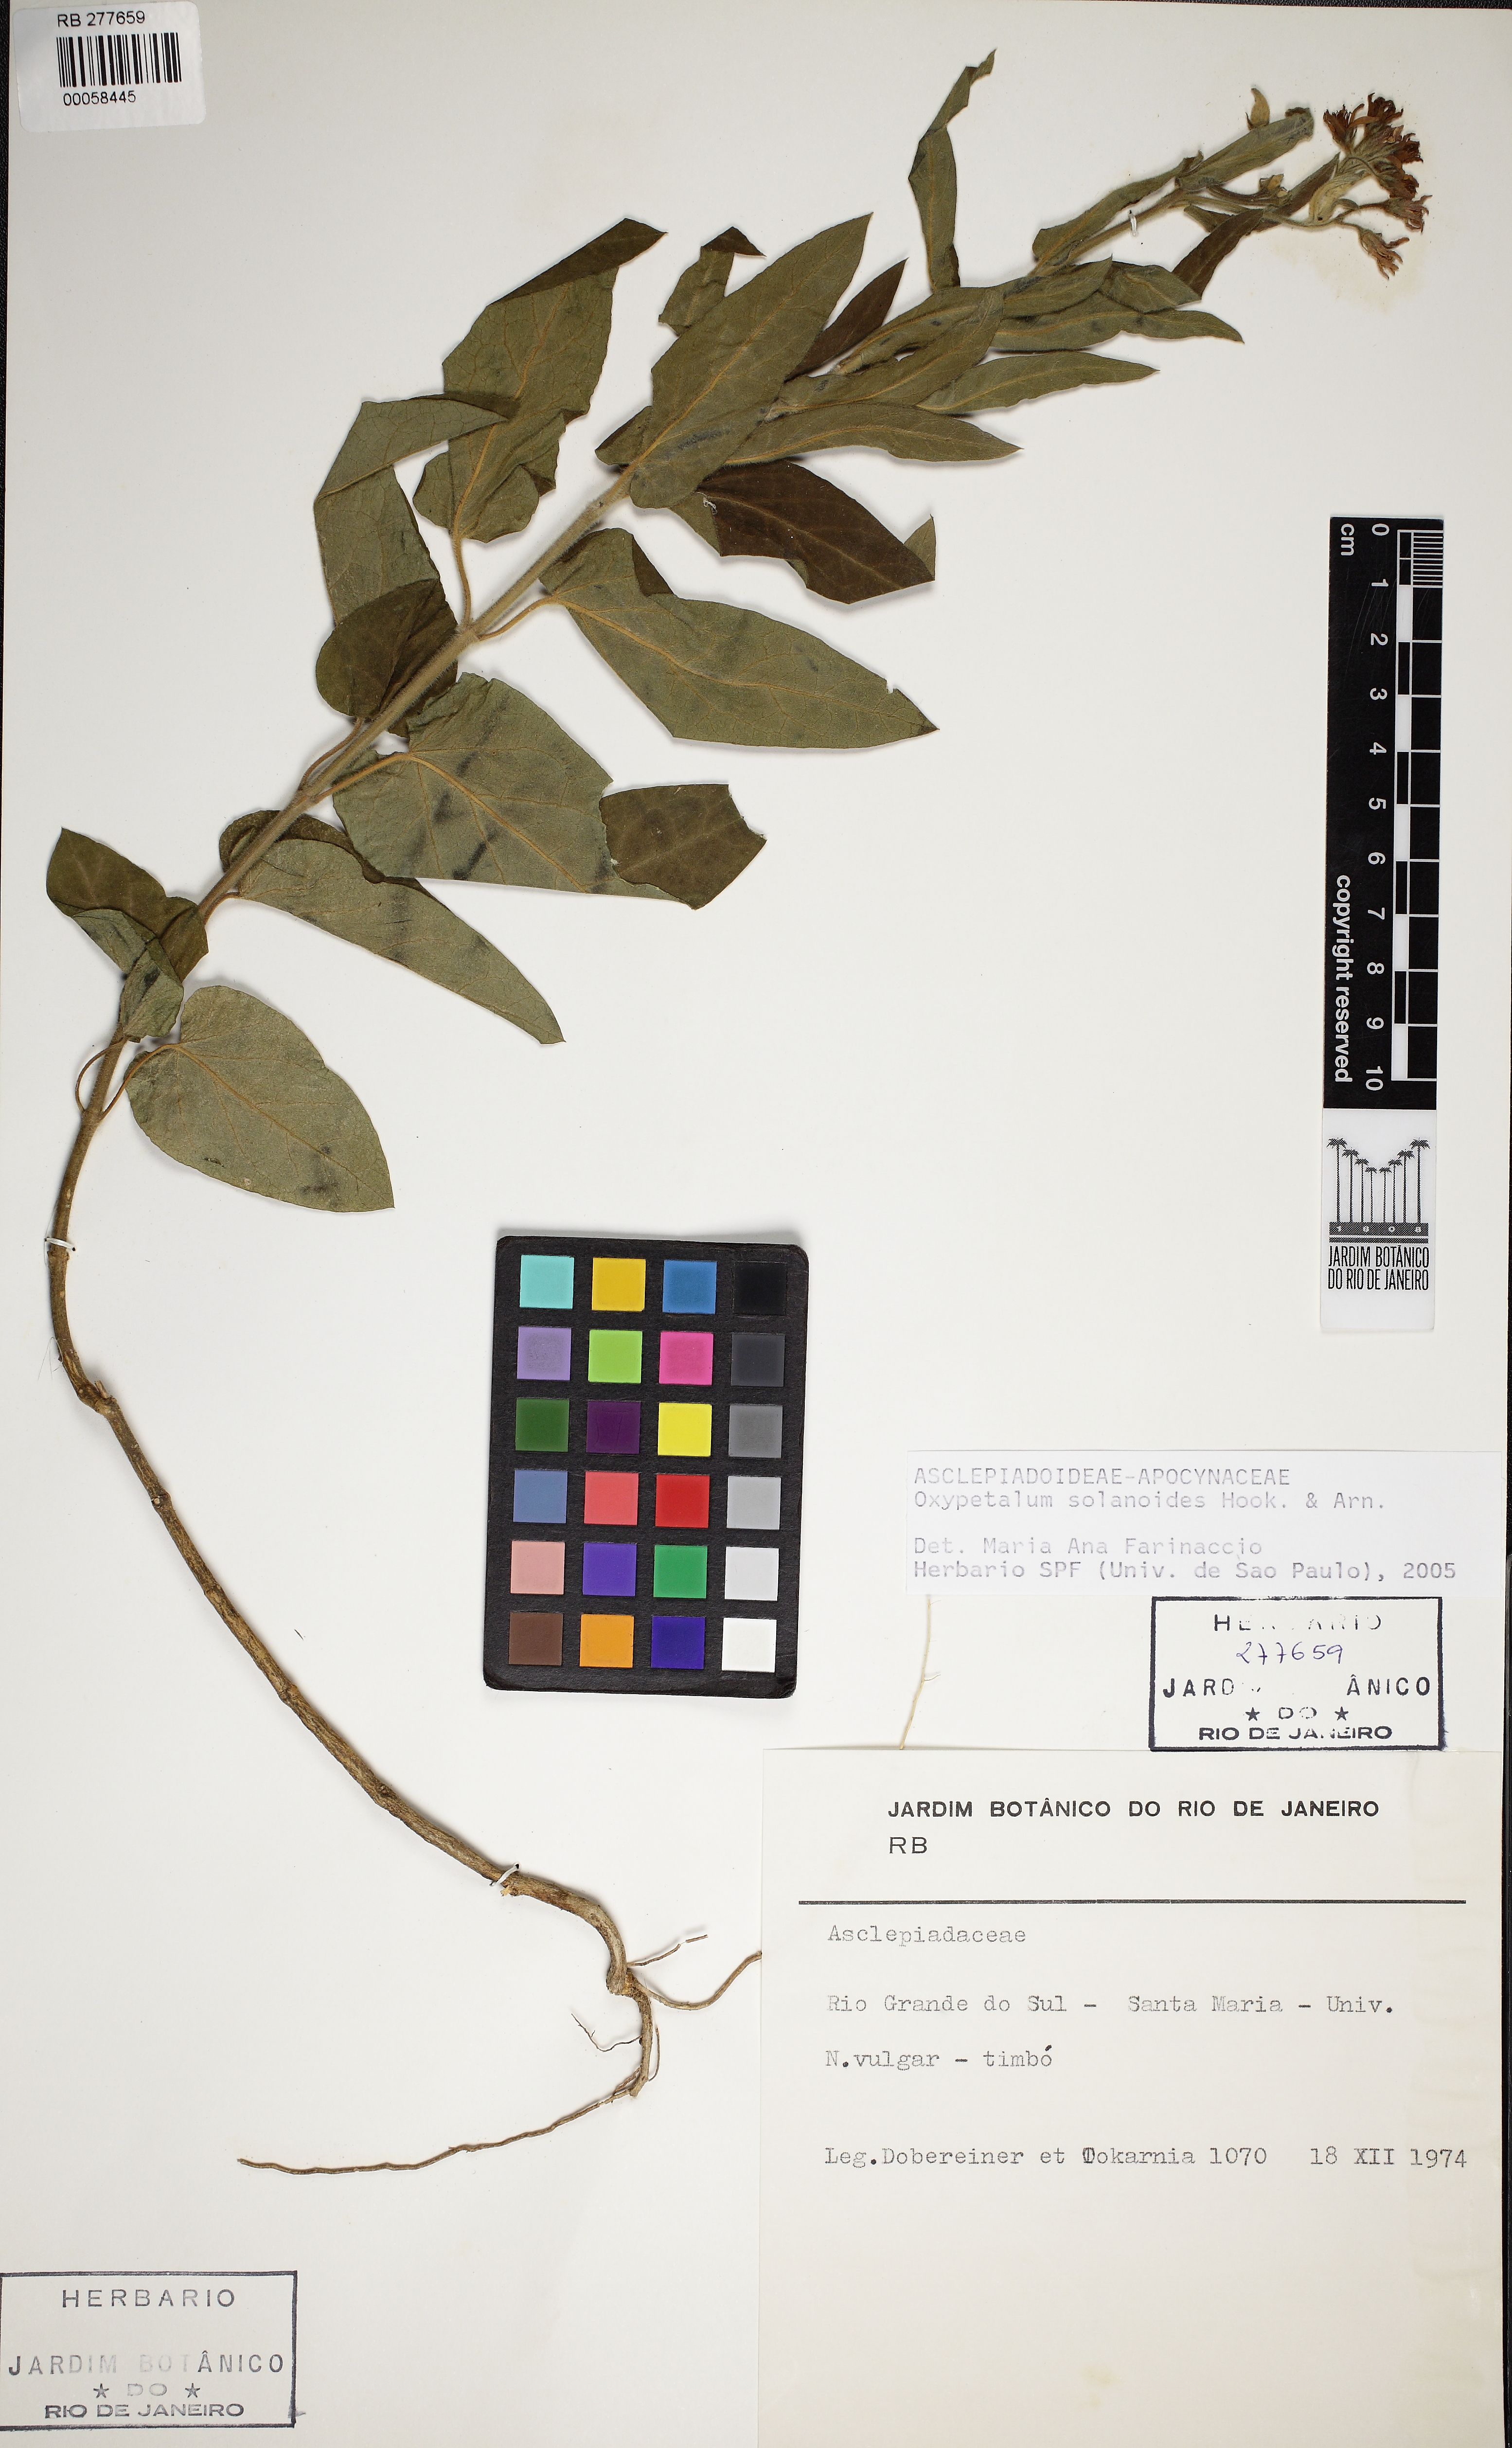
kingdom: Plantae
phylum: Tracheophyta
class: Magnoliopsida
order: Gentianales
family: Apocynaceae
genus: Oxypetalum
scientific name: Oxypetalum solanoides
